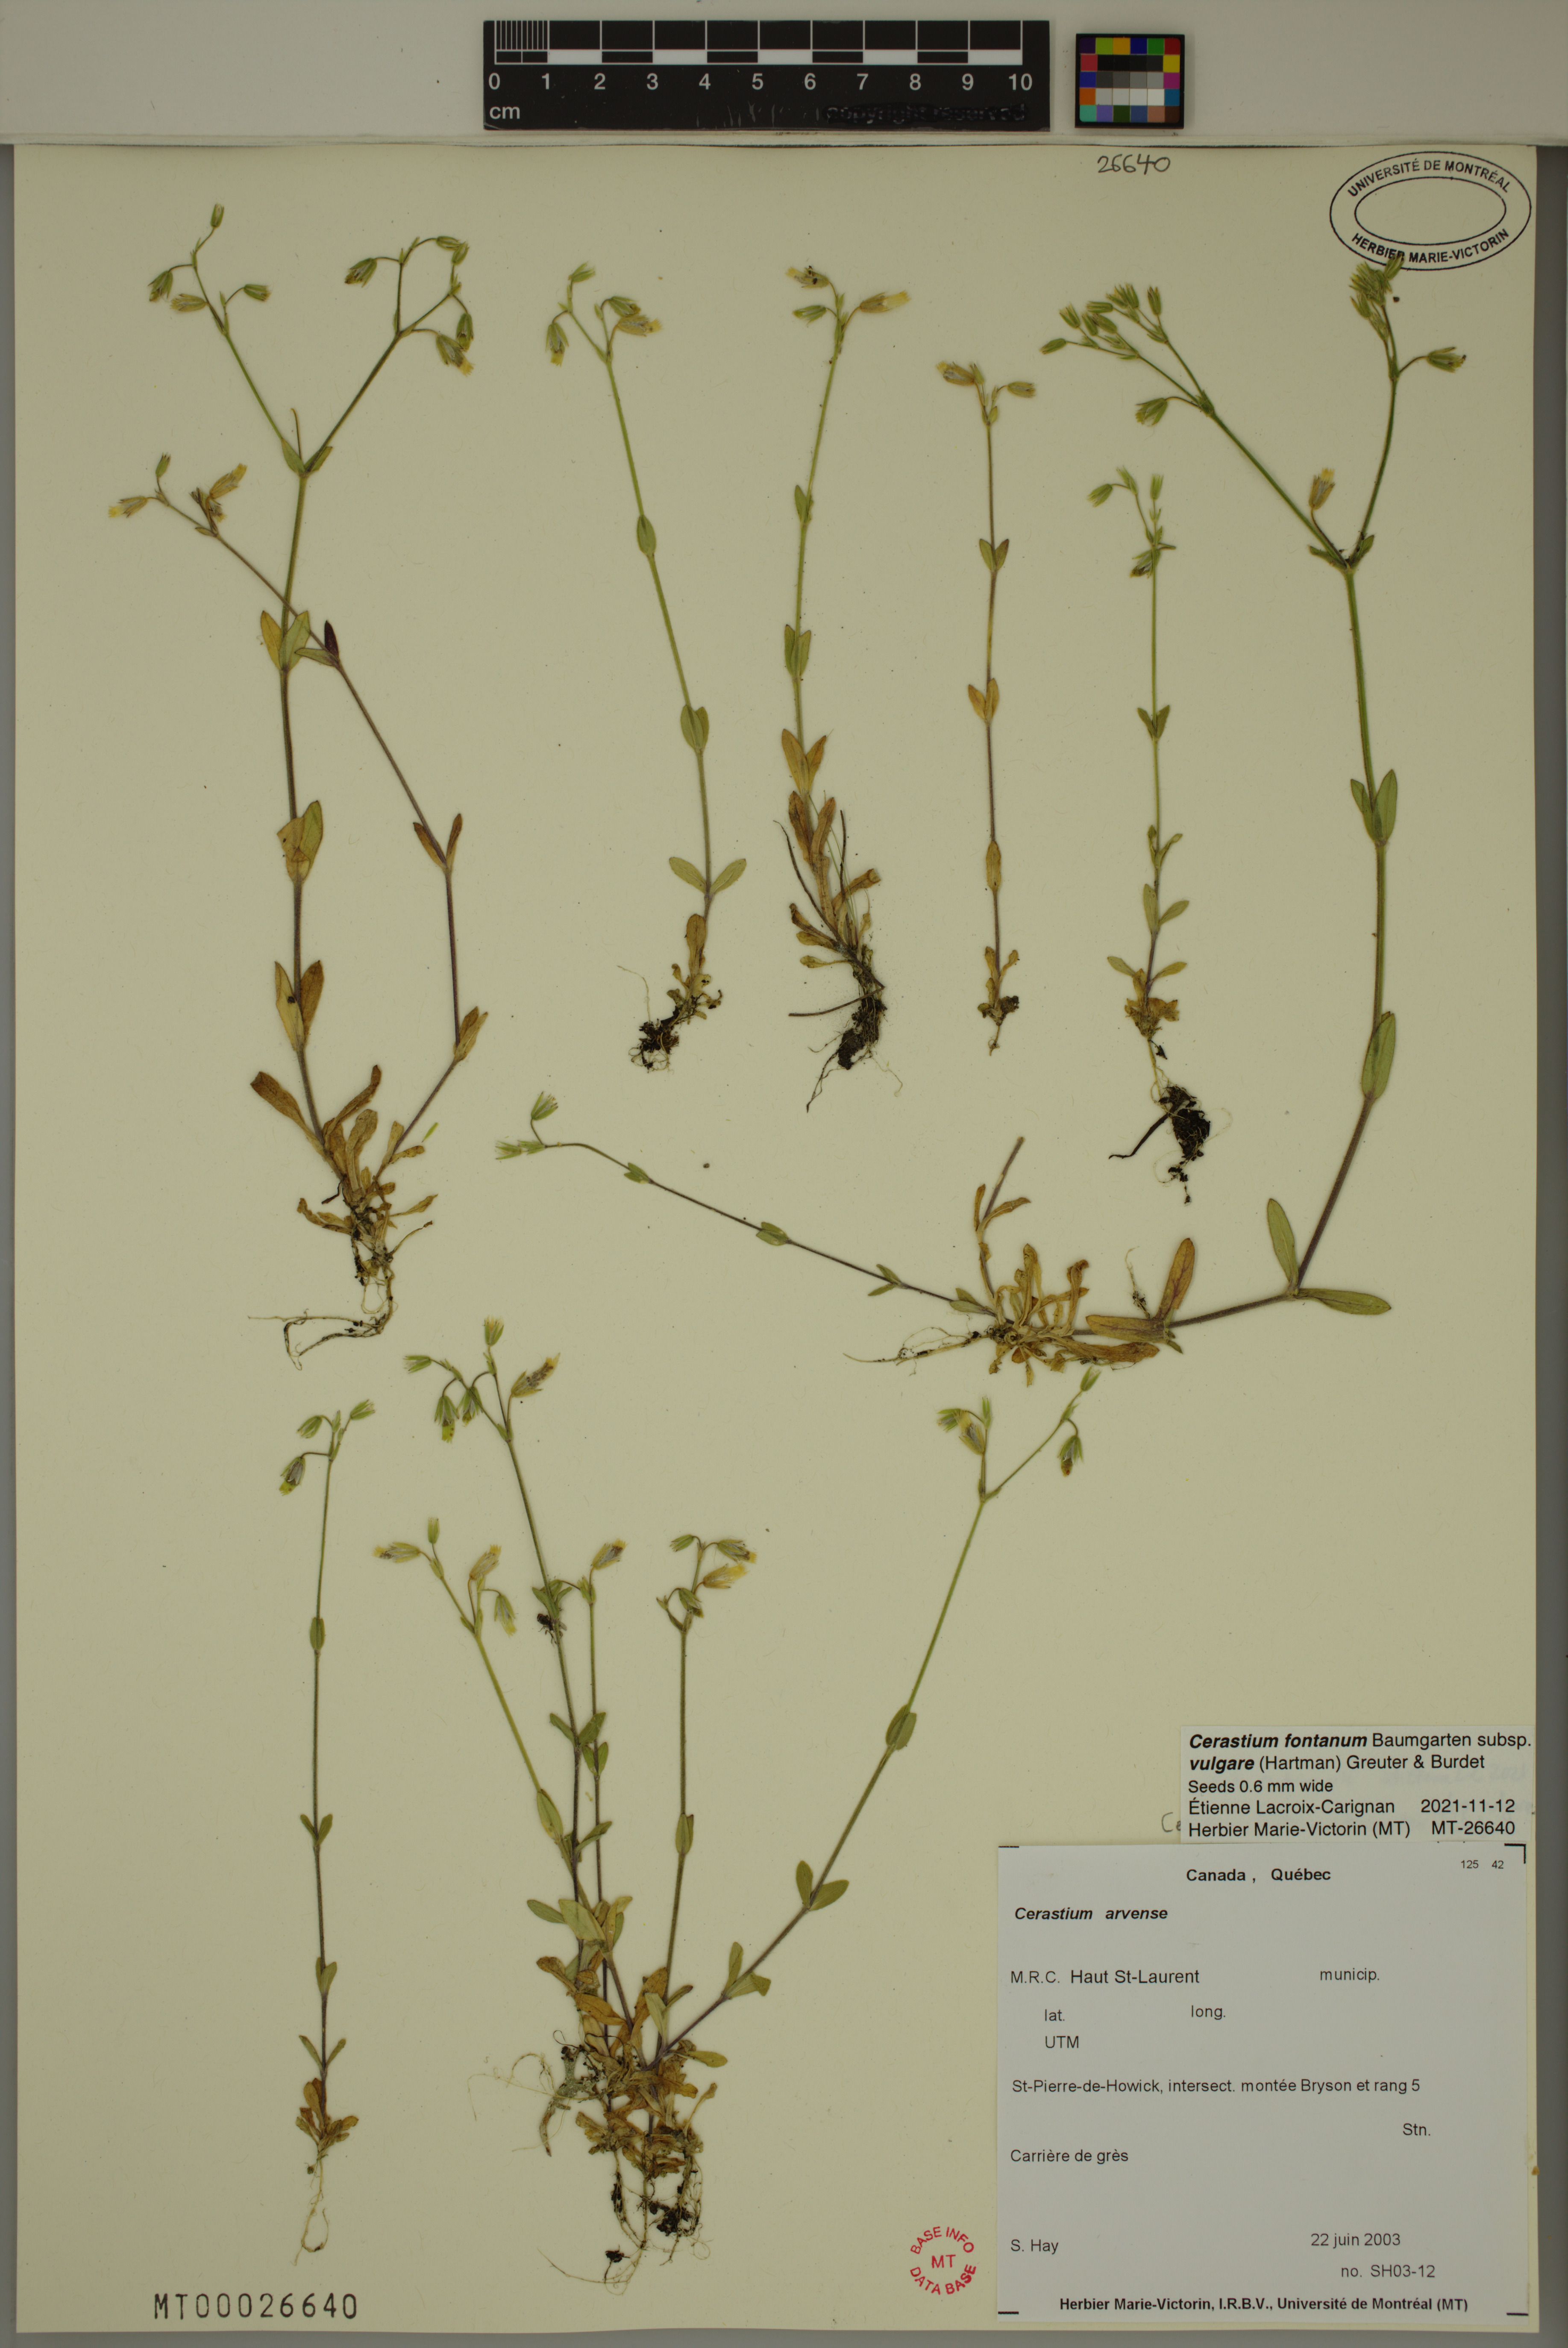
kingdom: Plantae
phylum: Tracheophyta
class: Magnoliopsida
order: Caryophyllales
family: Caryophyllaceae
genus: Cerastium
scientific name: Cerastium holosteoides
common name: Big chickweed
